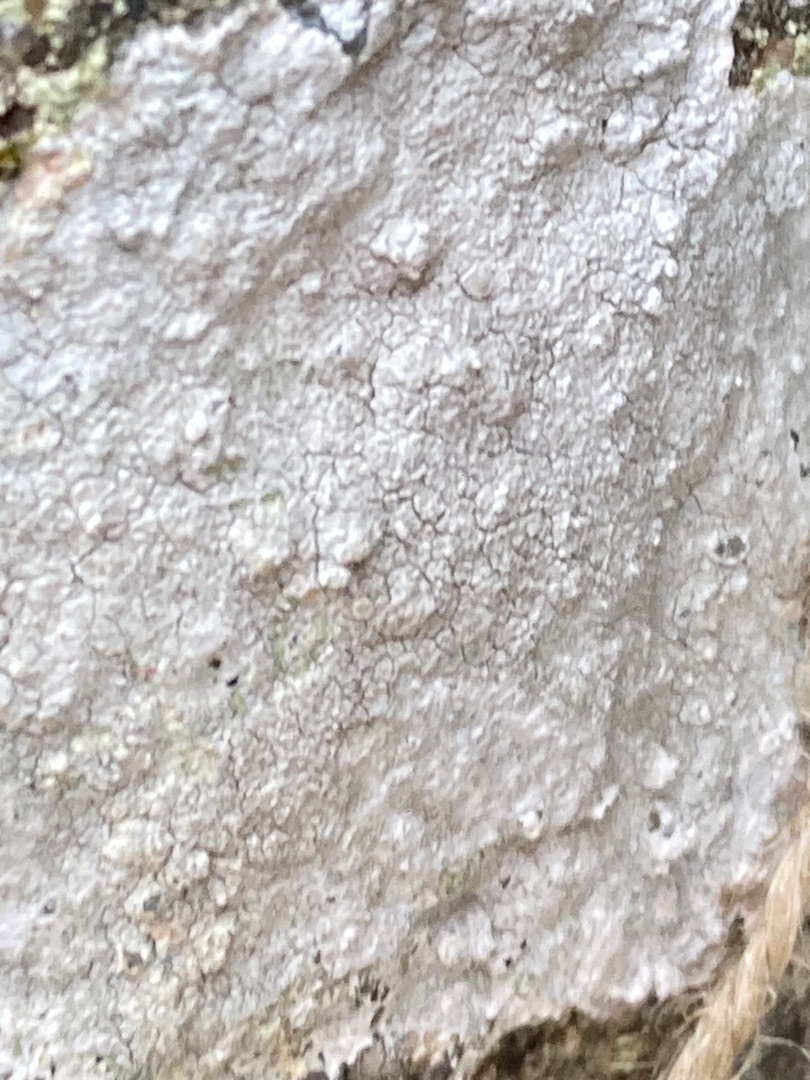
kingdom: Fungi
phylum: Ascomycota
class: Lecanoromycetes
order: Lecanorales
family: Lecanoraceae
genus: Glaucomaria
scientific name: Glaucomaria rupicola
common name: Stengærde-kantskivelav
